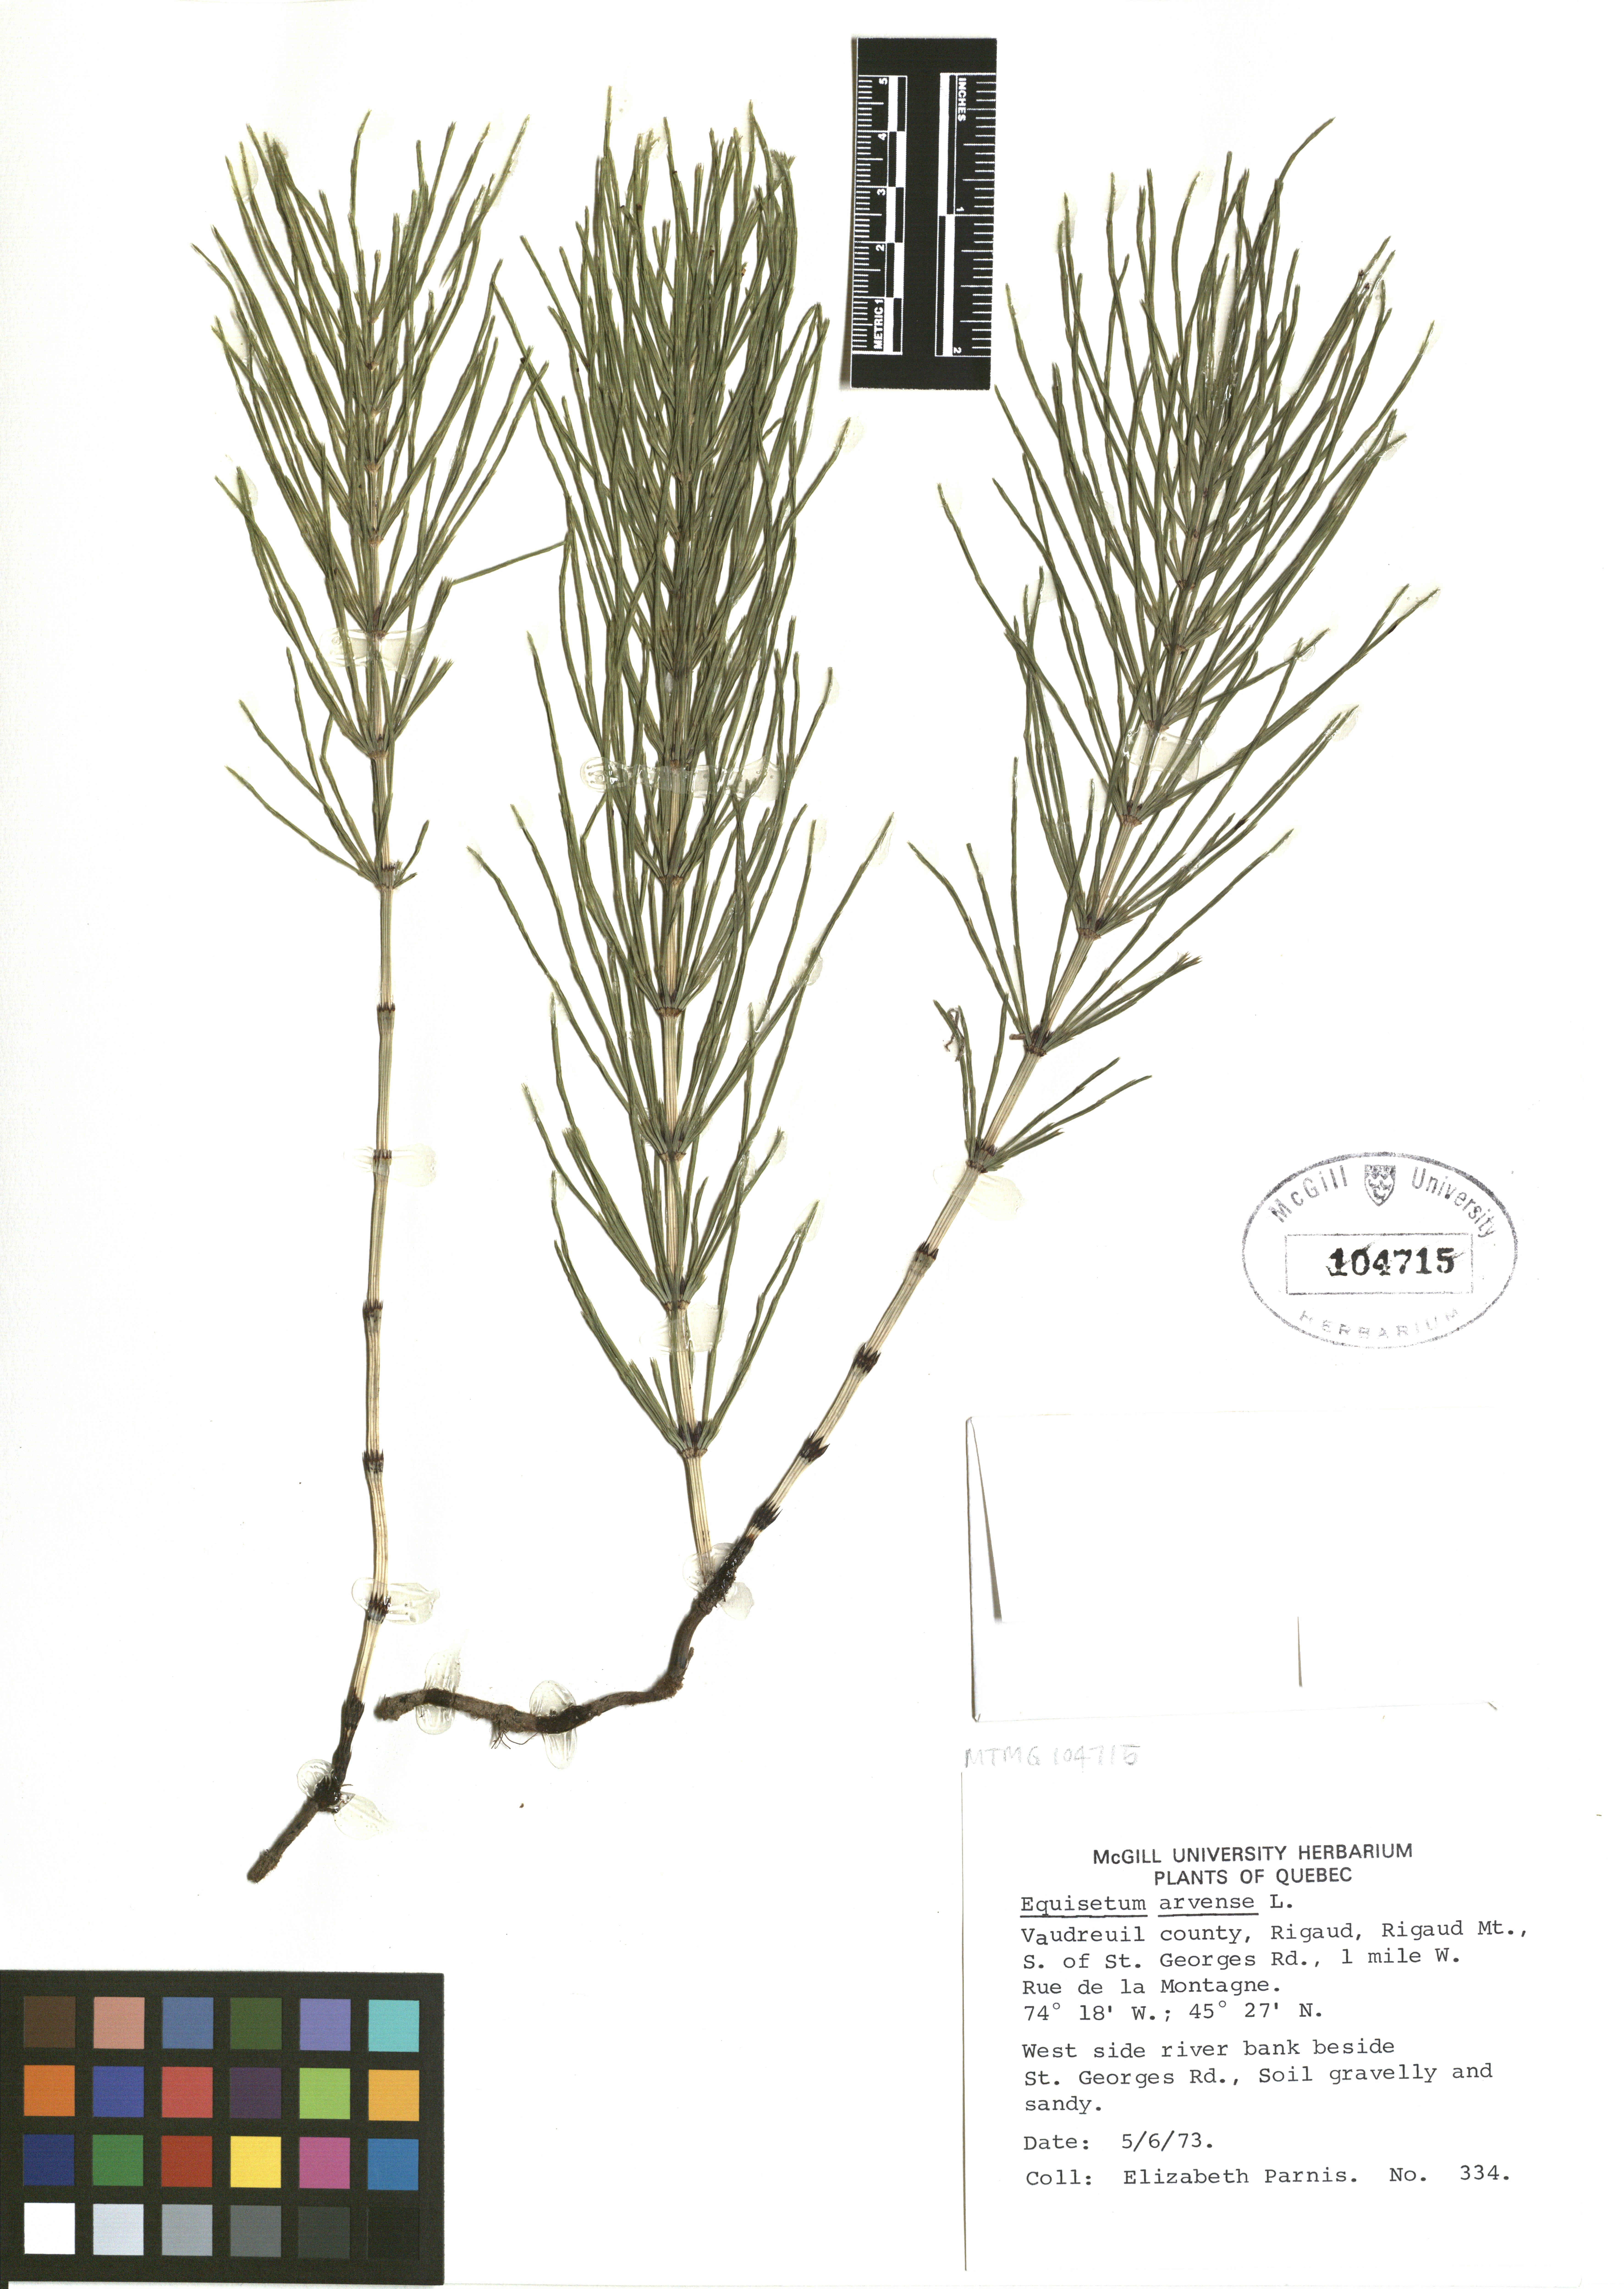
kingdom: Plantae
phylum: Tracheophyta
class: Polypodiopsida
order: Equisetales
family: Equisetaceae
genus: Equisetum
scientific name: Equisetum arvense
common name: Field horsetail
